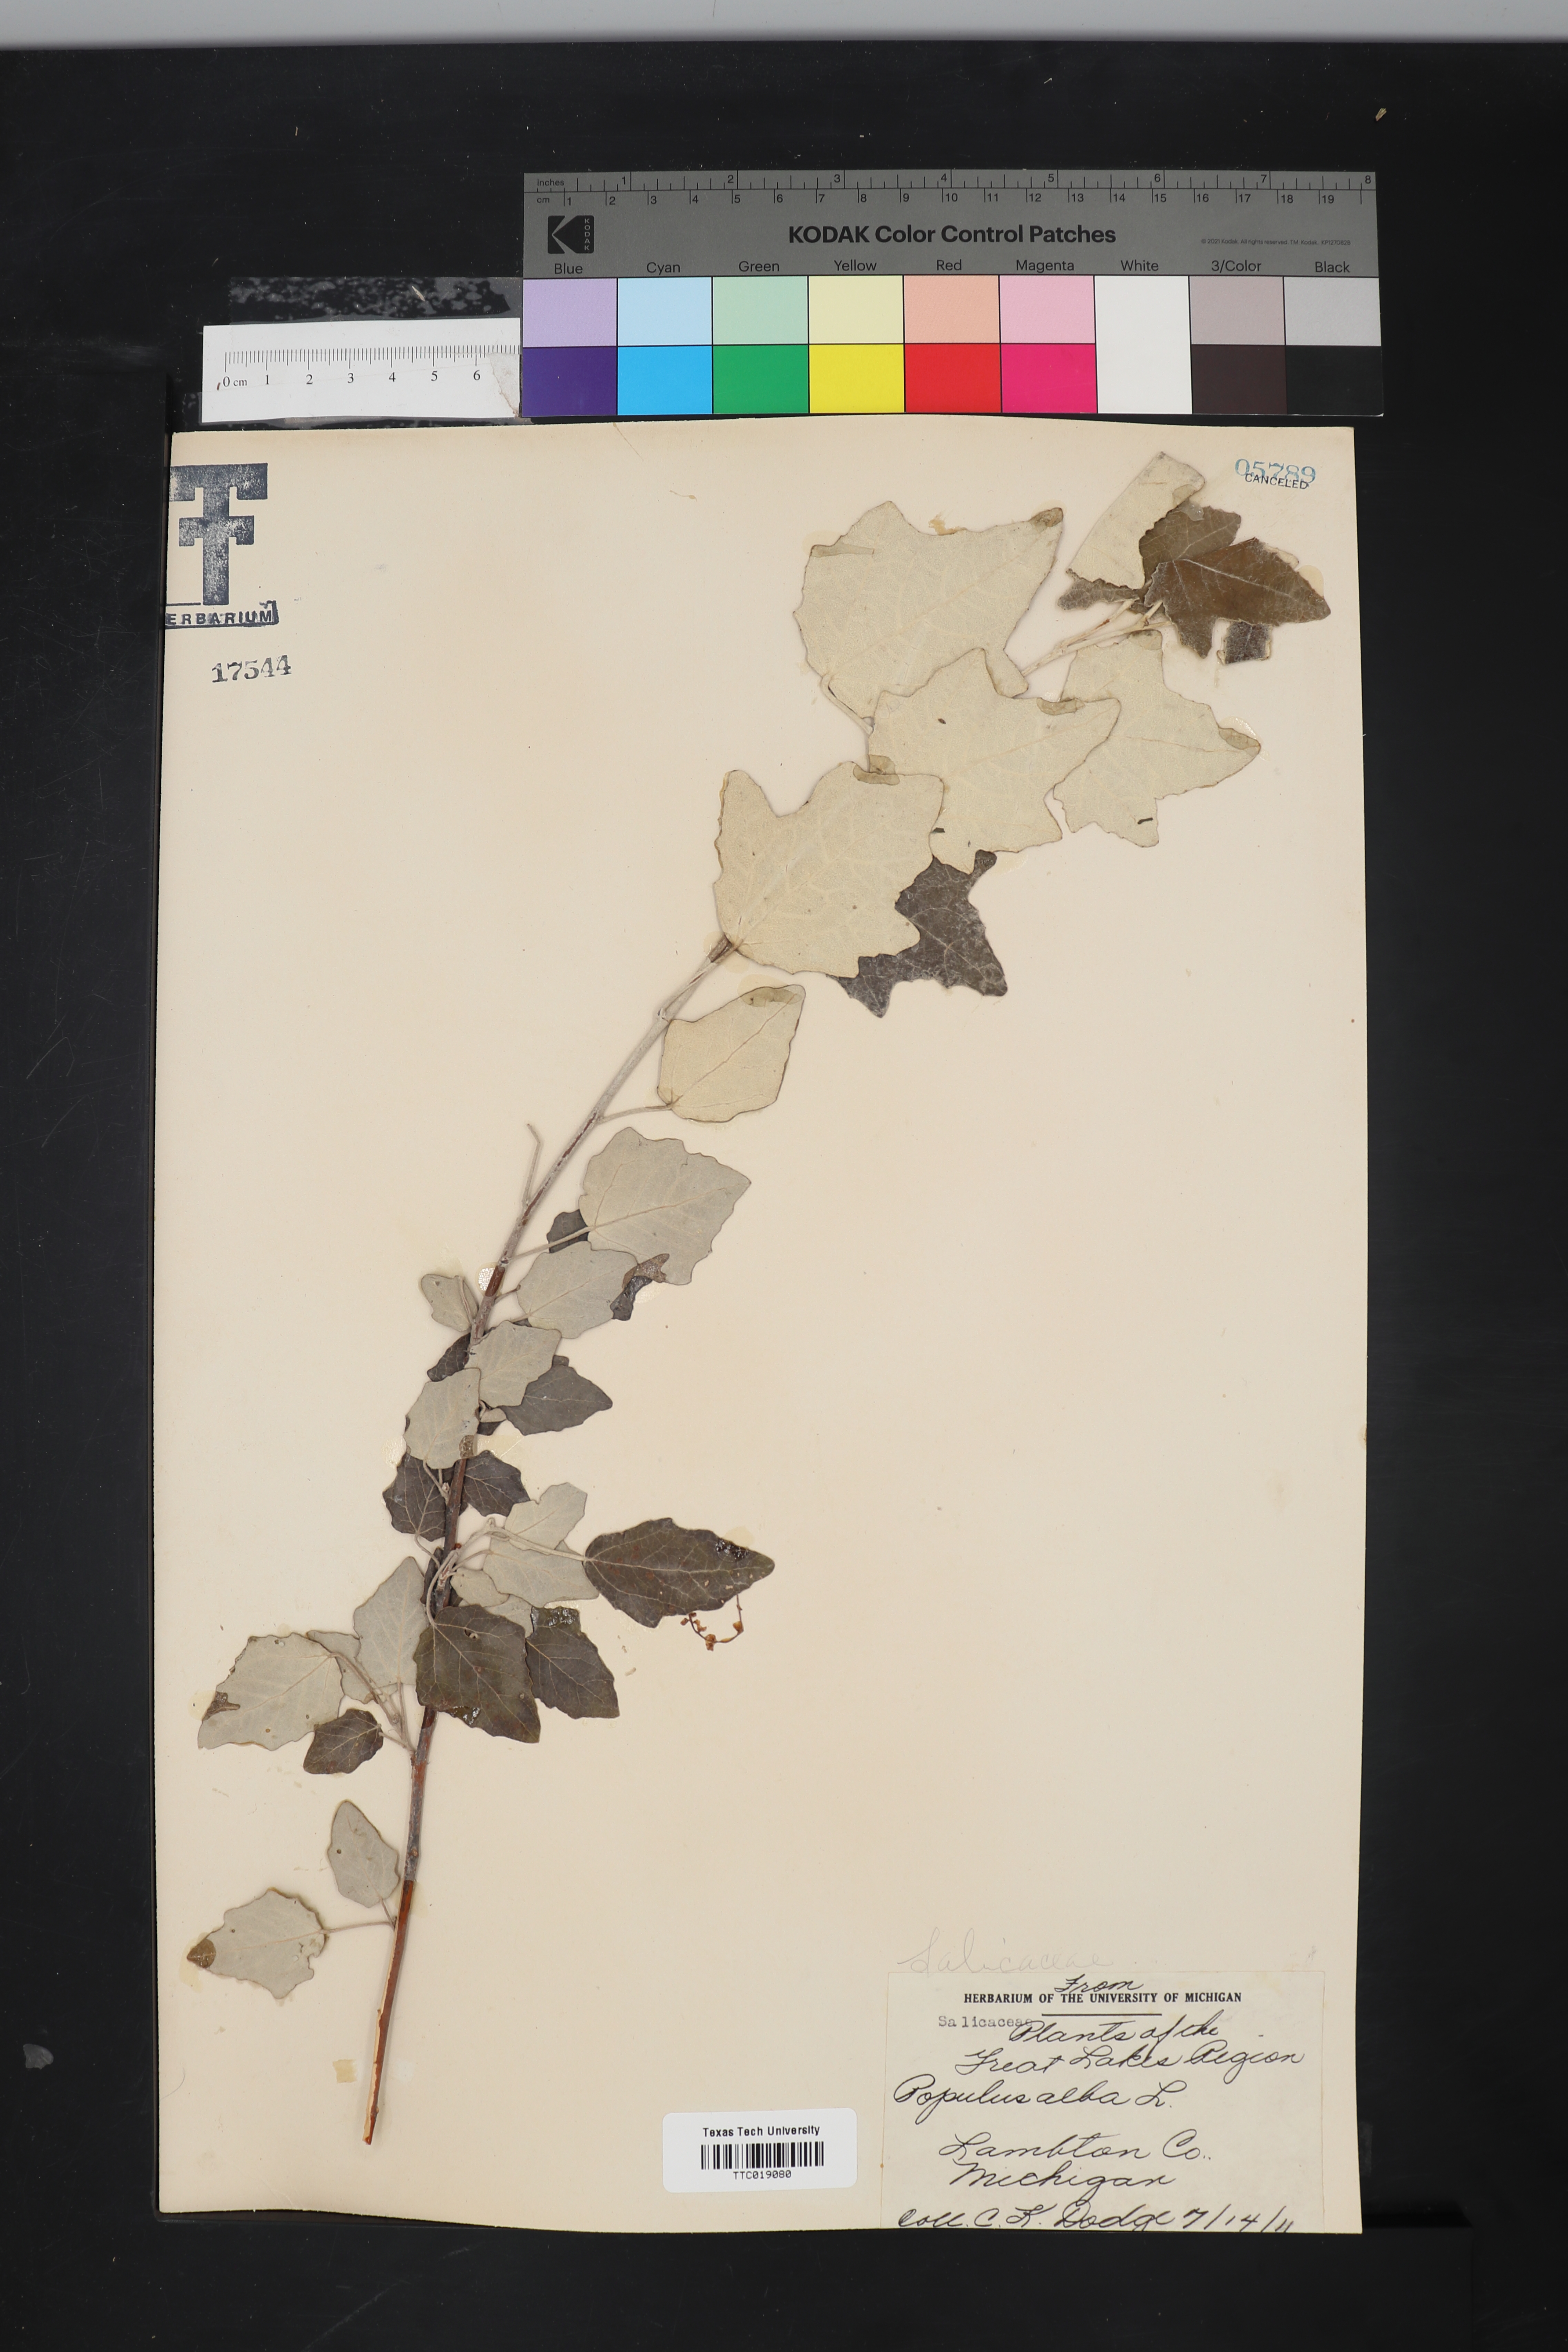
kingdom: Plantae
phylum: Tracheophyta
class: Magnoliopsida
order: Malpighiales
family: Salicaceae
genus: Populus
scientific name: Populus alba
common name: White poplar
